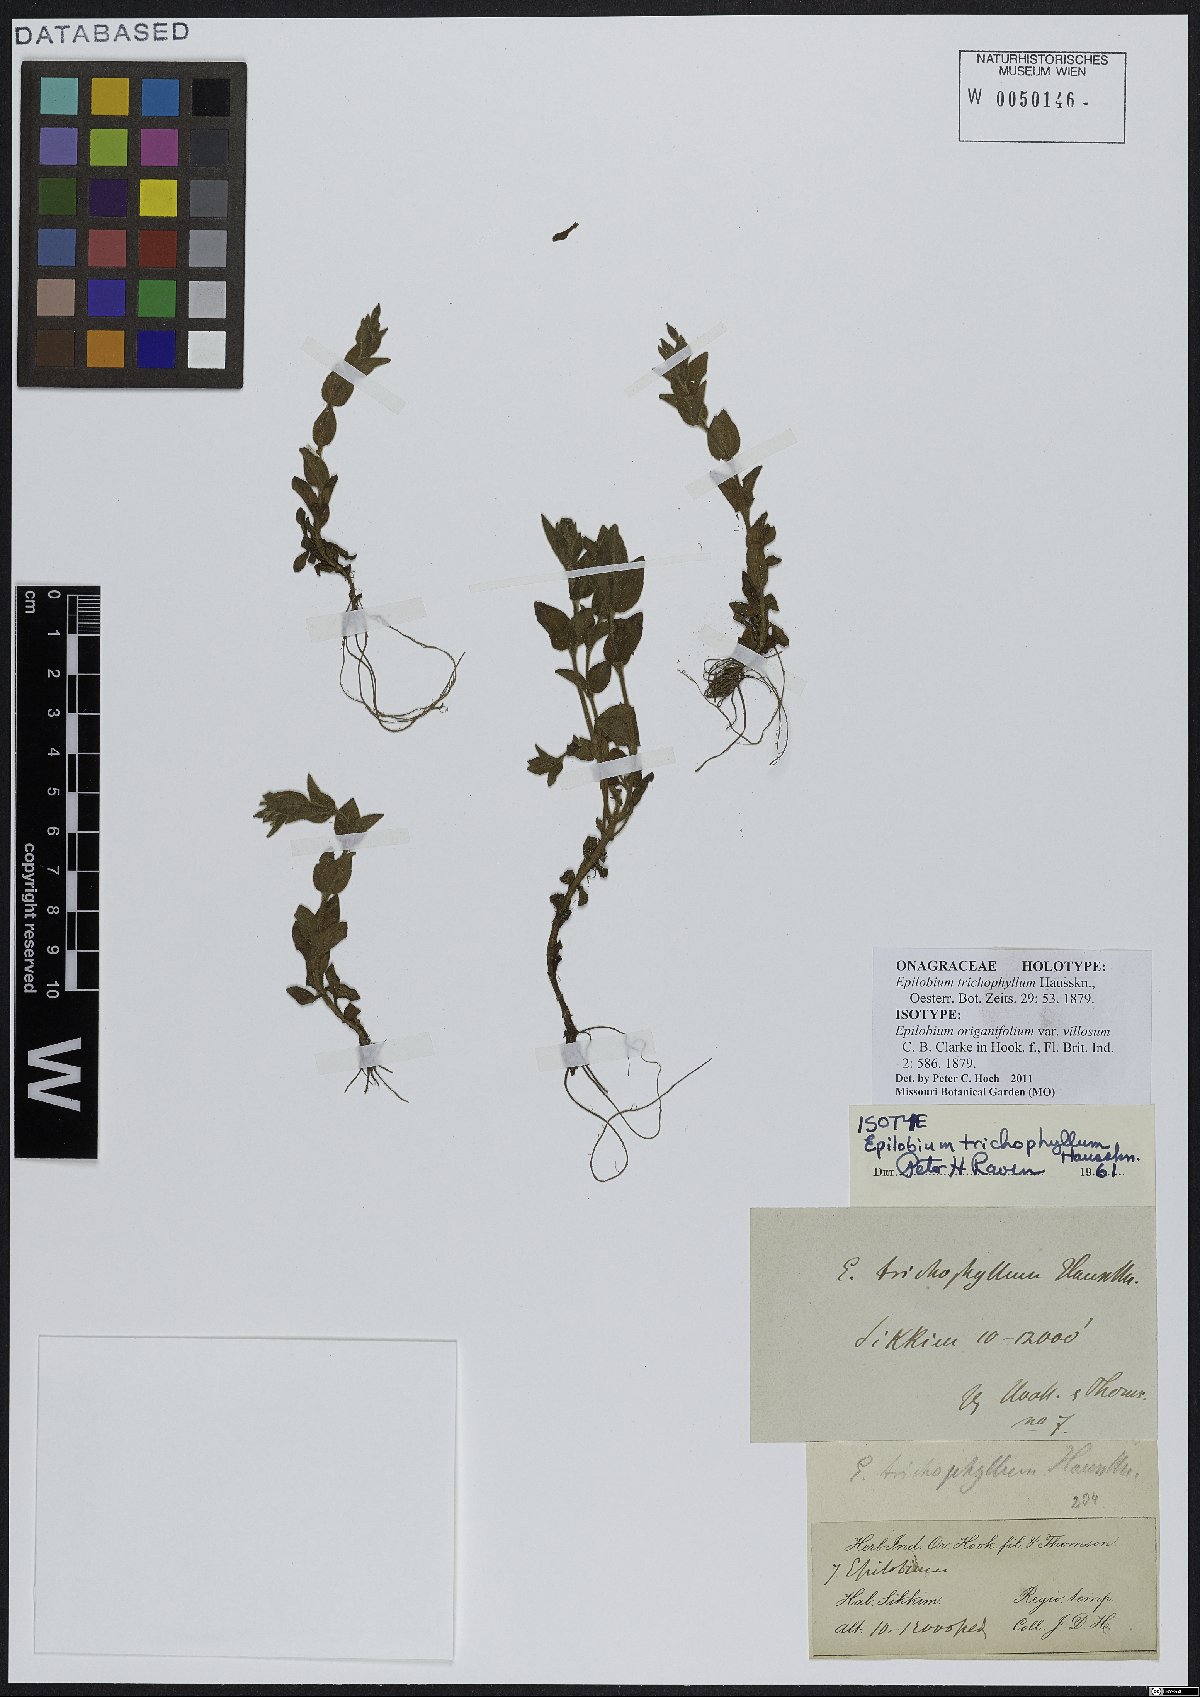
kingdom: Plantae
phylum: Tracheophyta
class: Magnoliopsida
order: Myrtales
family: Onagraceae
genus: Epilobium
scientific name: Epilobium trichophyllum
